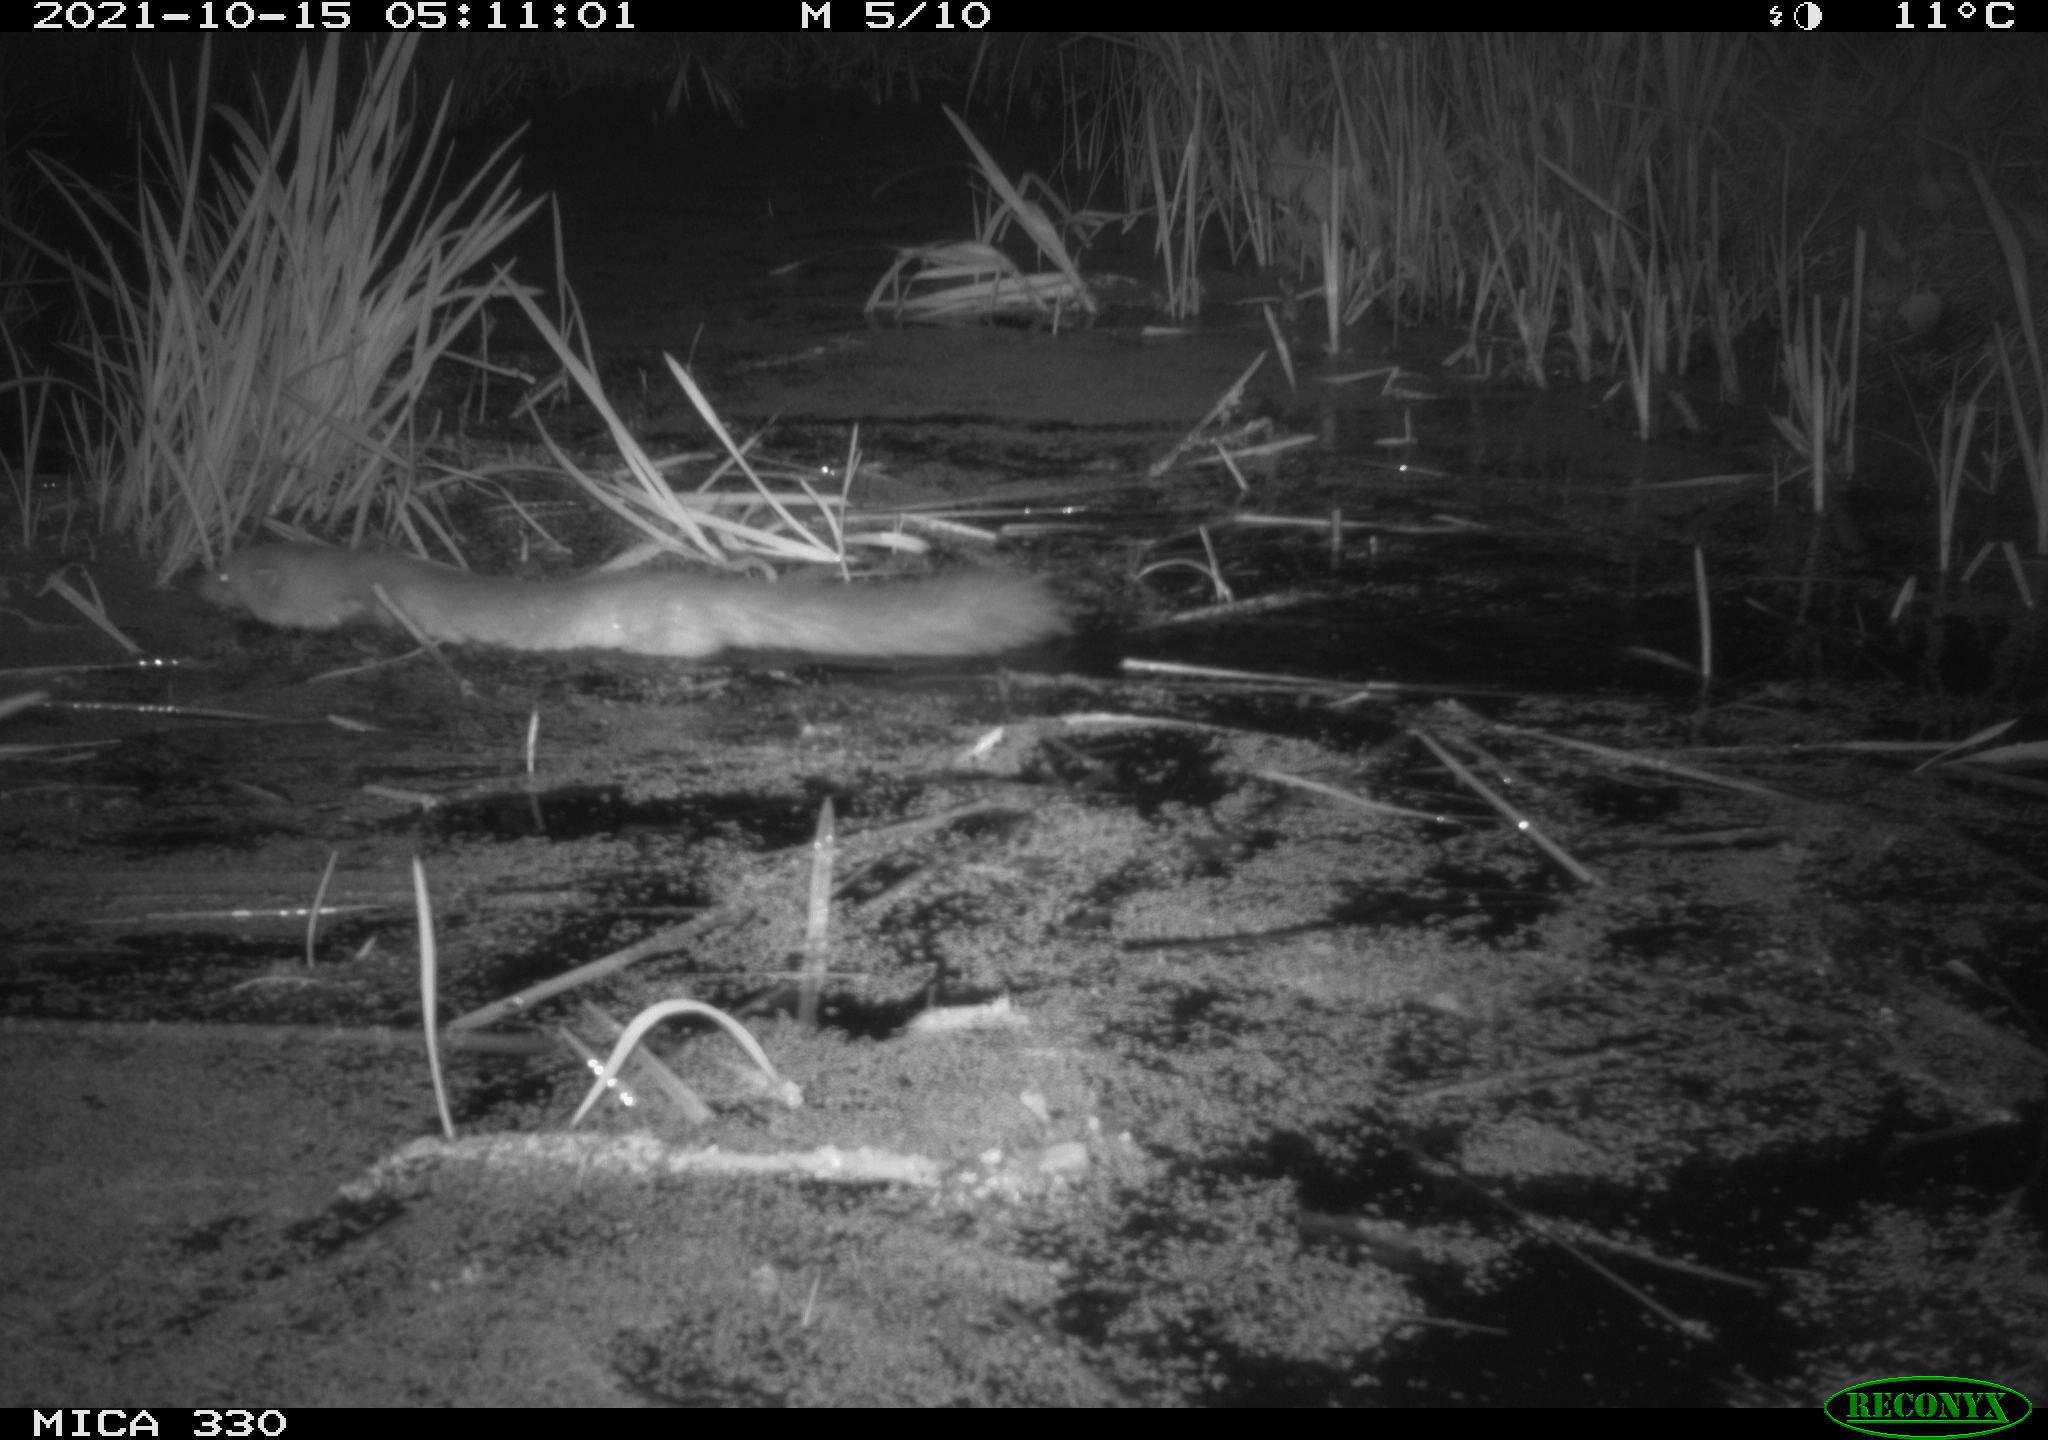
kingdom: Animalia
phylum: Chordata
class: Mammalia
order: Carnivora
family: Mustelidae
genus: Martes
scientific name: Martes foina
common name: Beech marten
